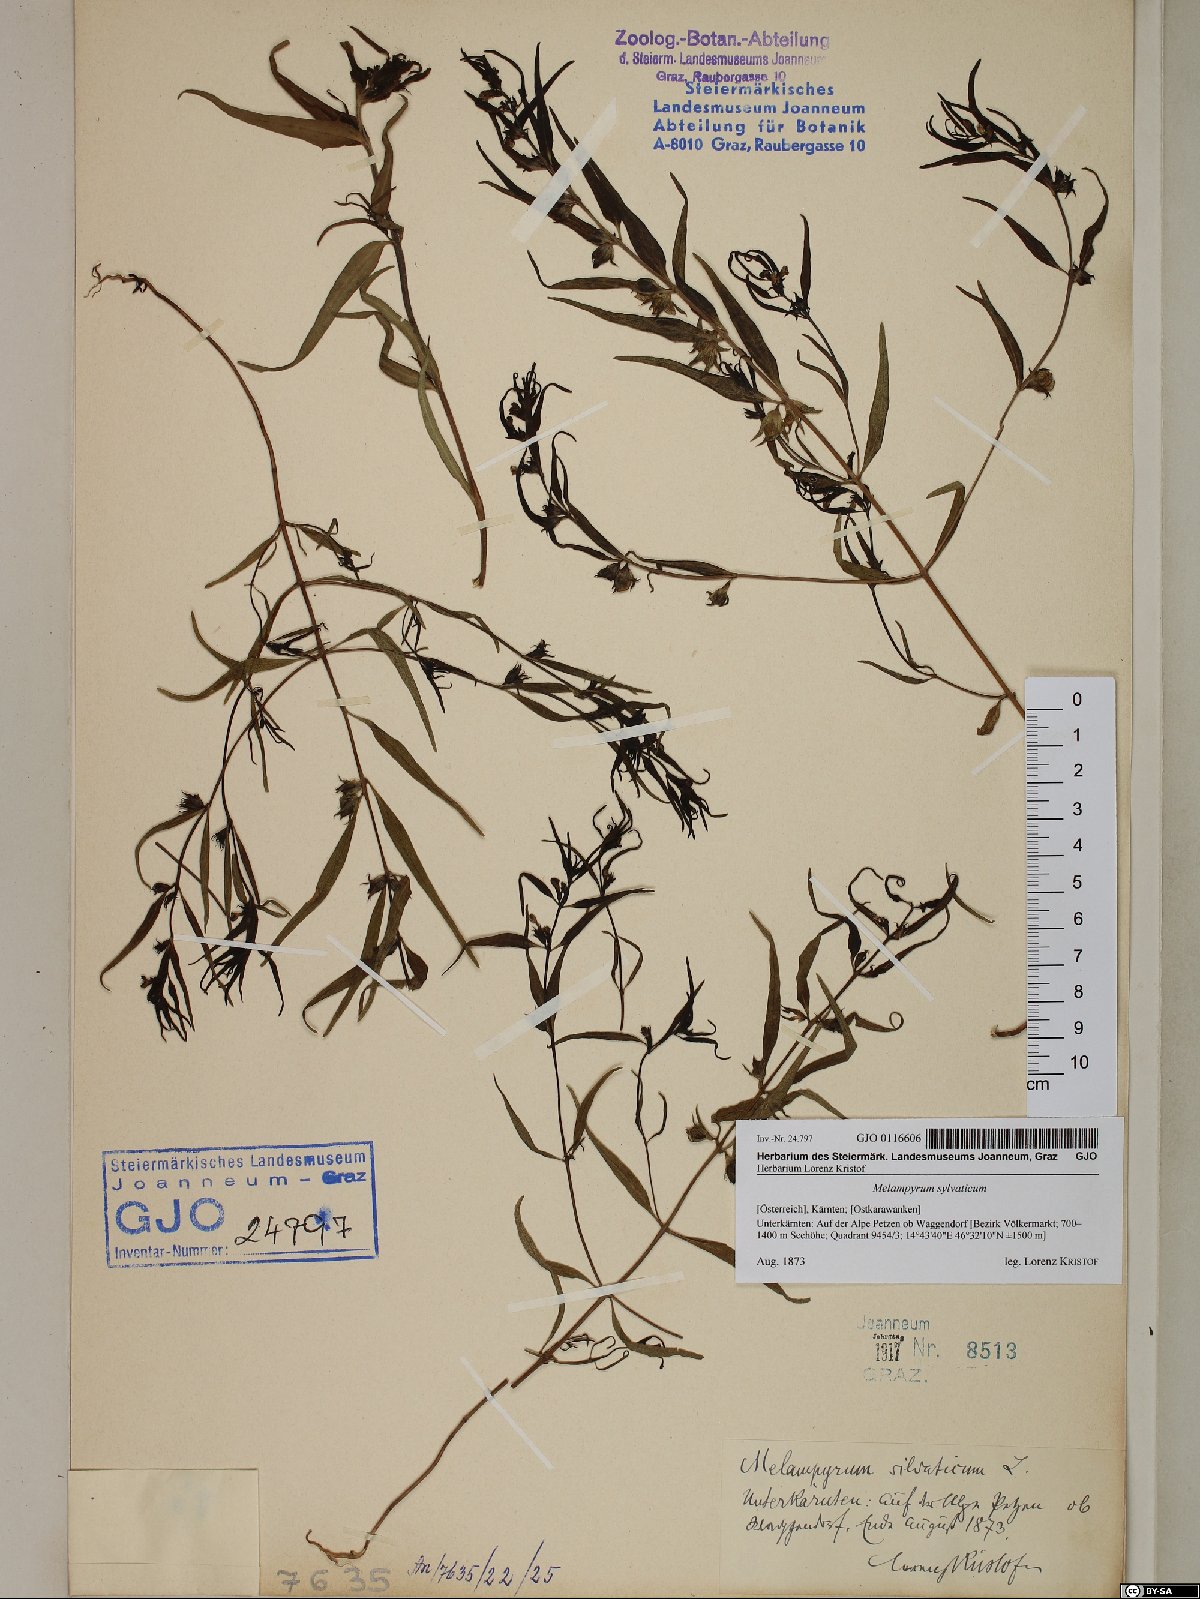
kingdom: Plantae
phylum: Tracheophyta
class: Magnoliopsida
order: Lamiales
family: Orobanchaceae
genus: Melampyrum
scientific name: Melampyrum sylvaticum
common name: Small cow-wheat
